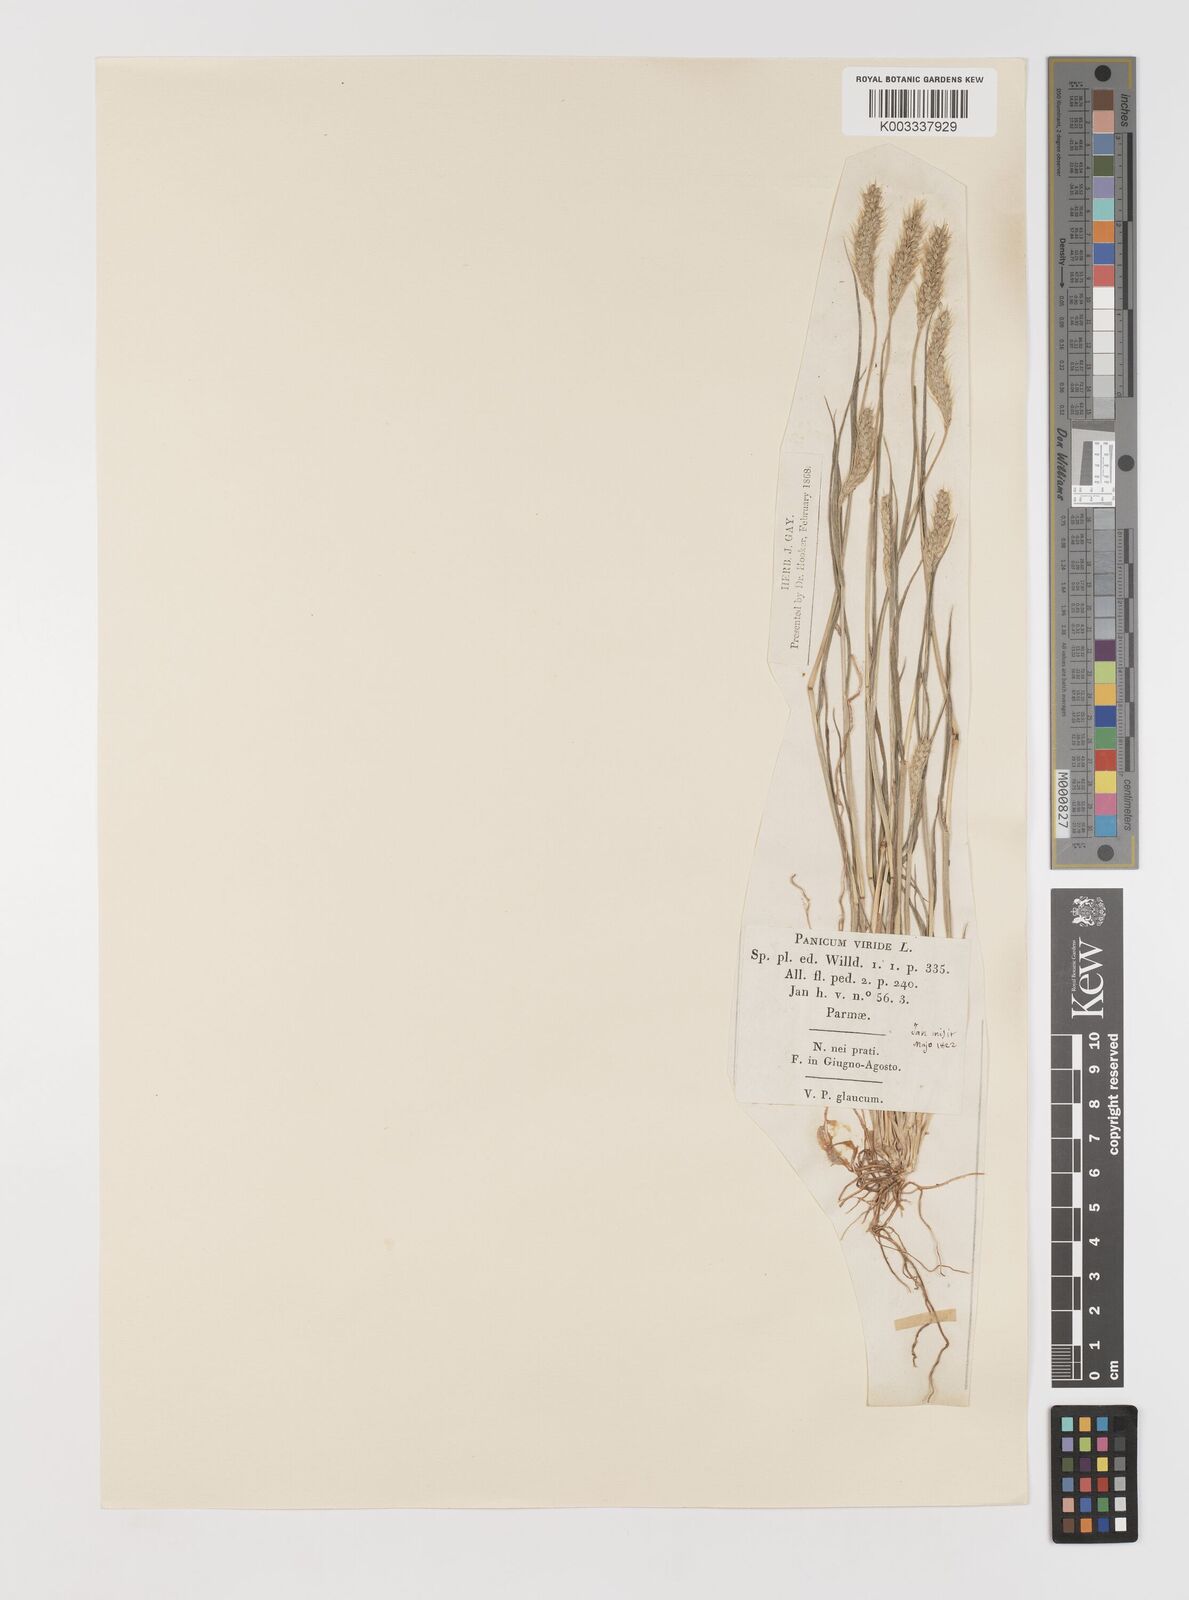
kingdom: Plantae
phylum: Tracheophyta
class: Liliopsida
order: Poales
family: Poaceae
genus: Setaria
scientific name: Setaria viridis
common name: Green bristlegrass
